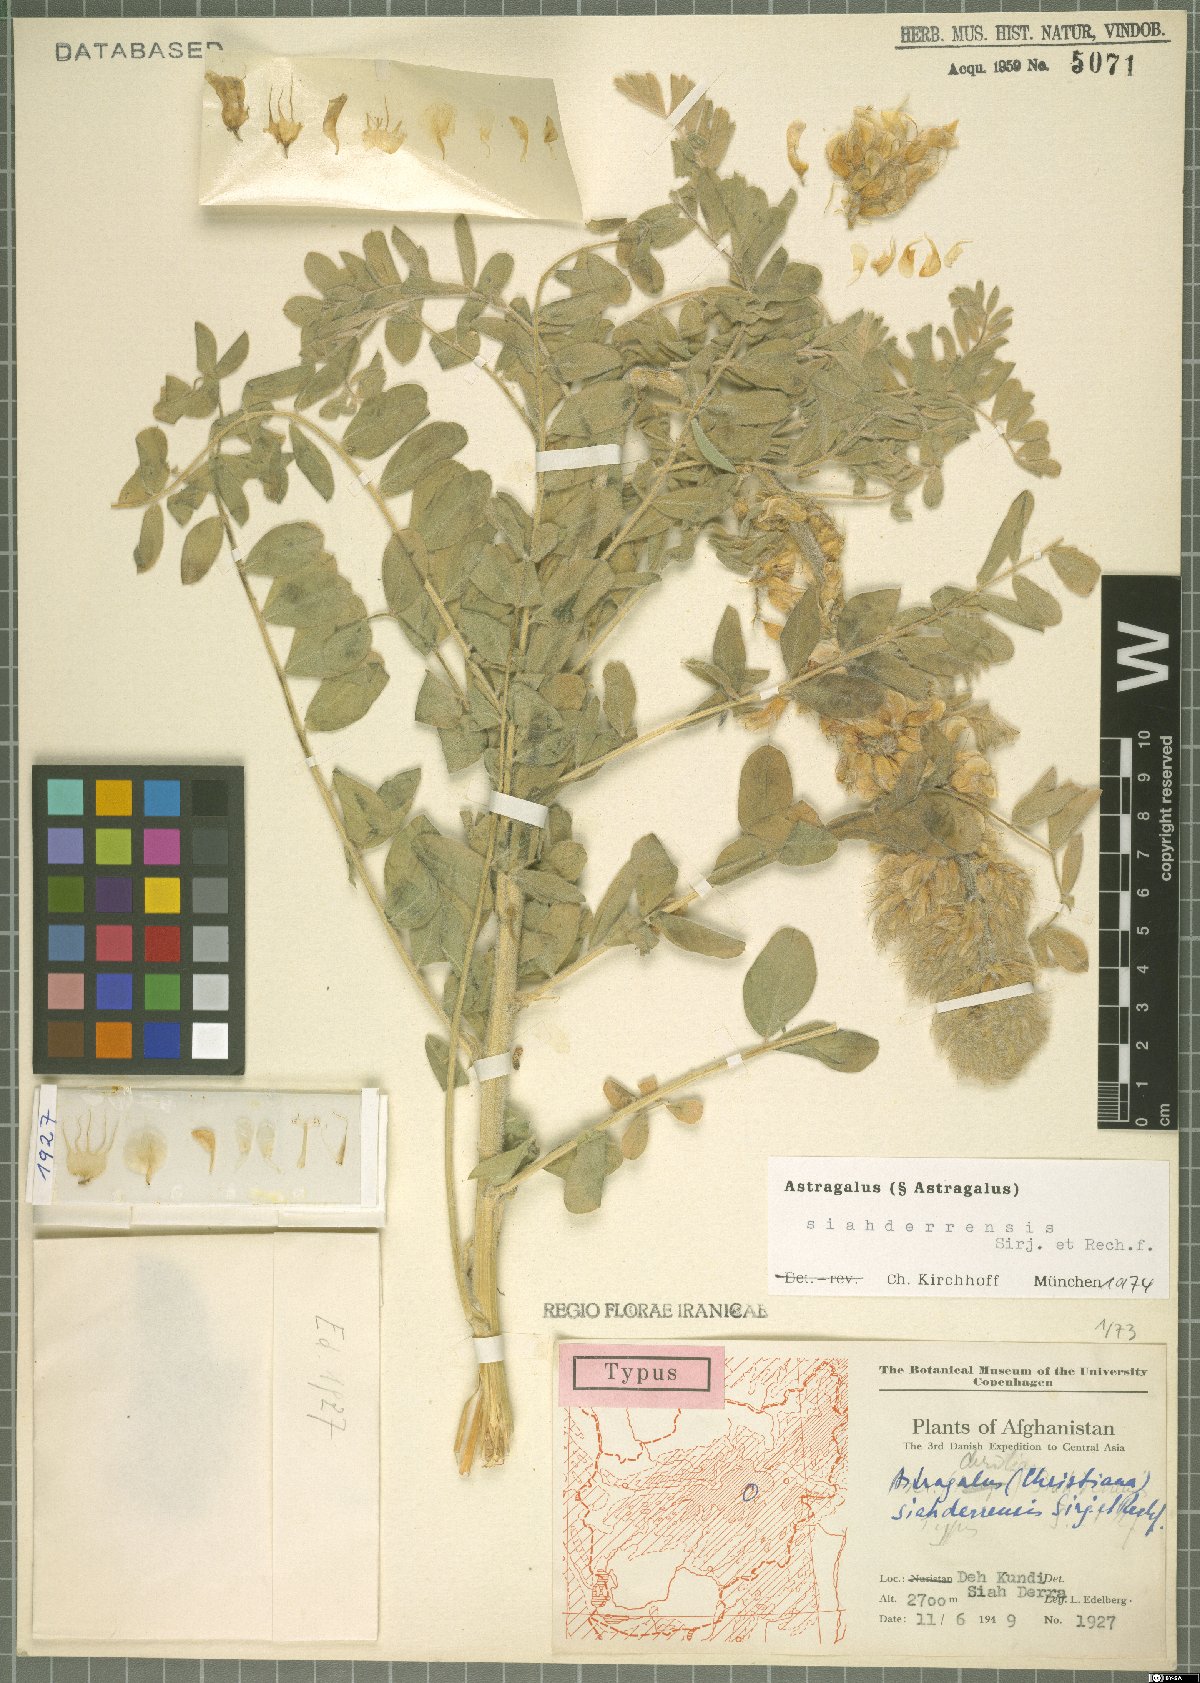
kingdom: Plantae
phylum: Tracheophyta
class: Magnoliopsida
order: Fabales
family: Fabaceae
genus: Astragalus
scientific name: Astragalus siahderrensis
